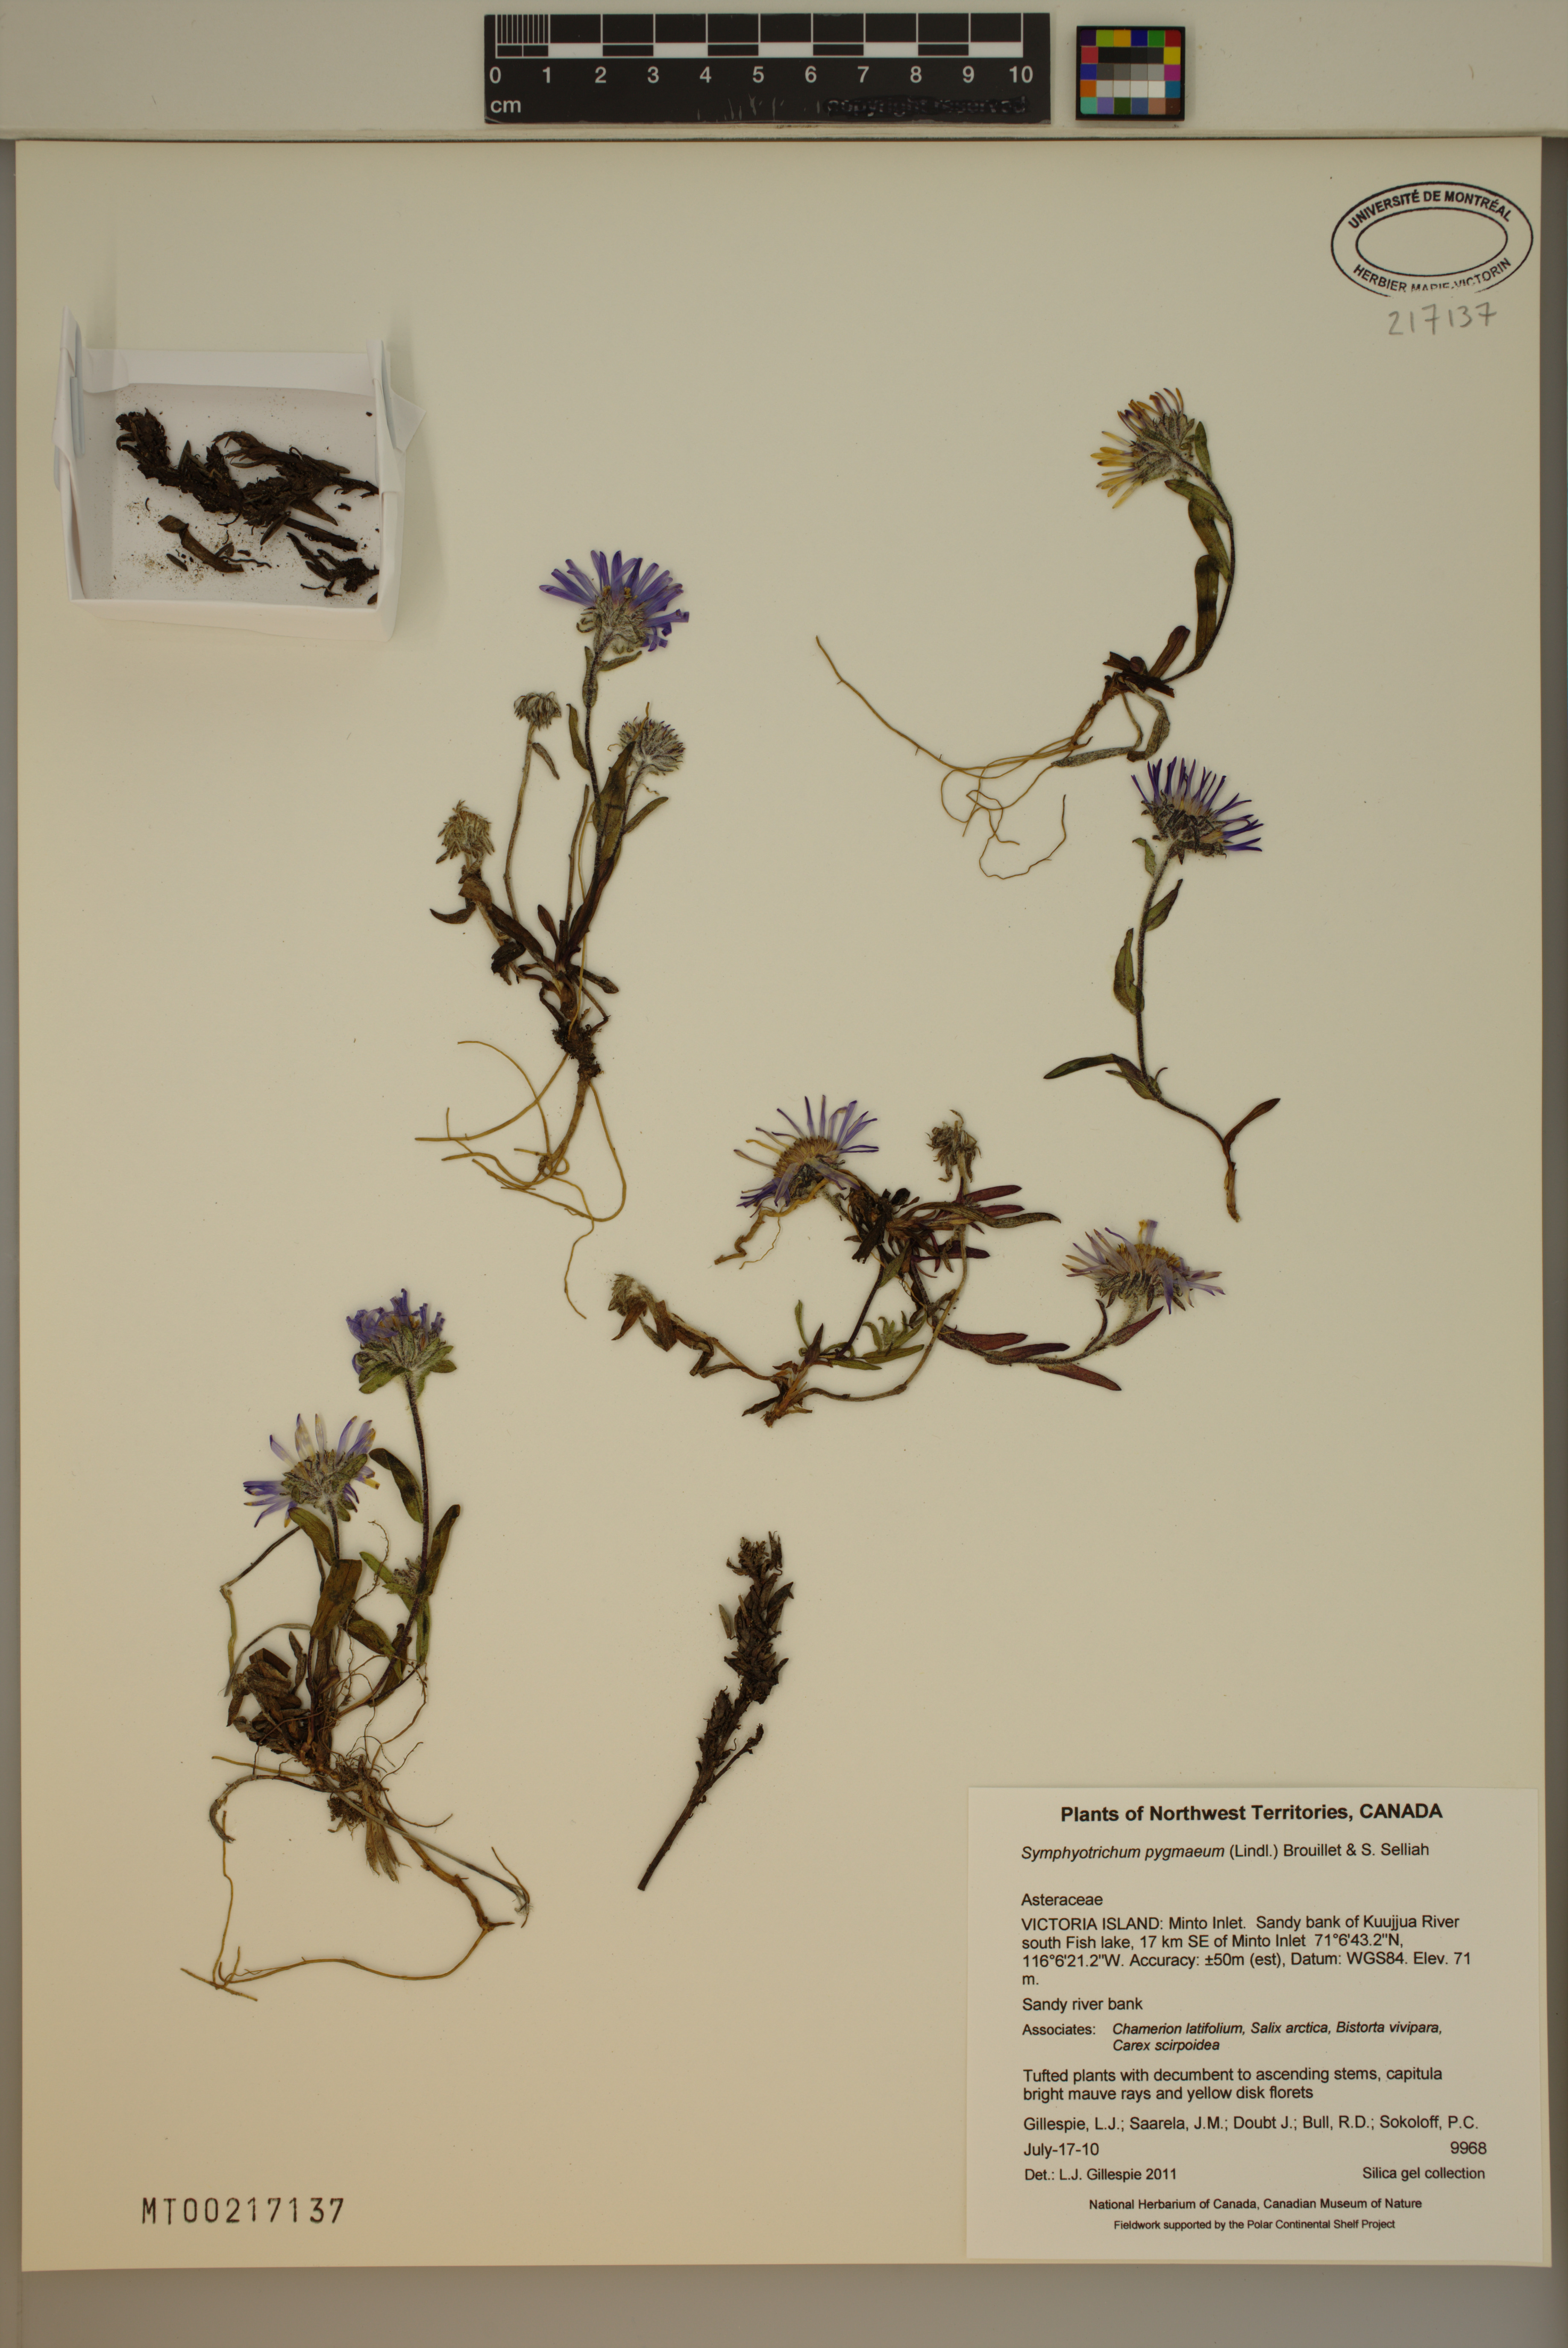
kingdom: Plantae
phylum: Tracheophyta
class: Magnoliopsida
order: Asterales
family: Asteraceae
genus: Symphyotrichum
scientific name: Symphyotrichum pygmaeum
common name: Pygmy aster
